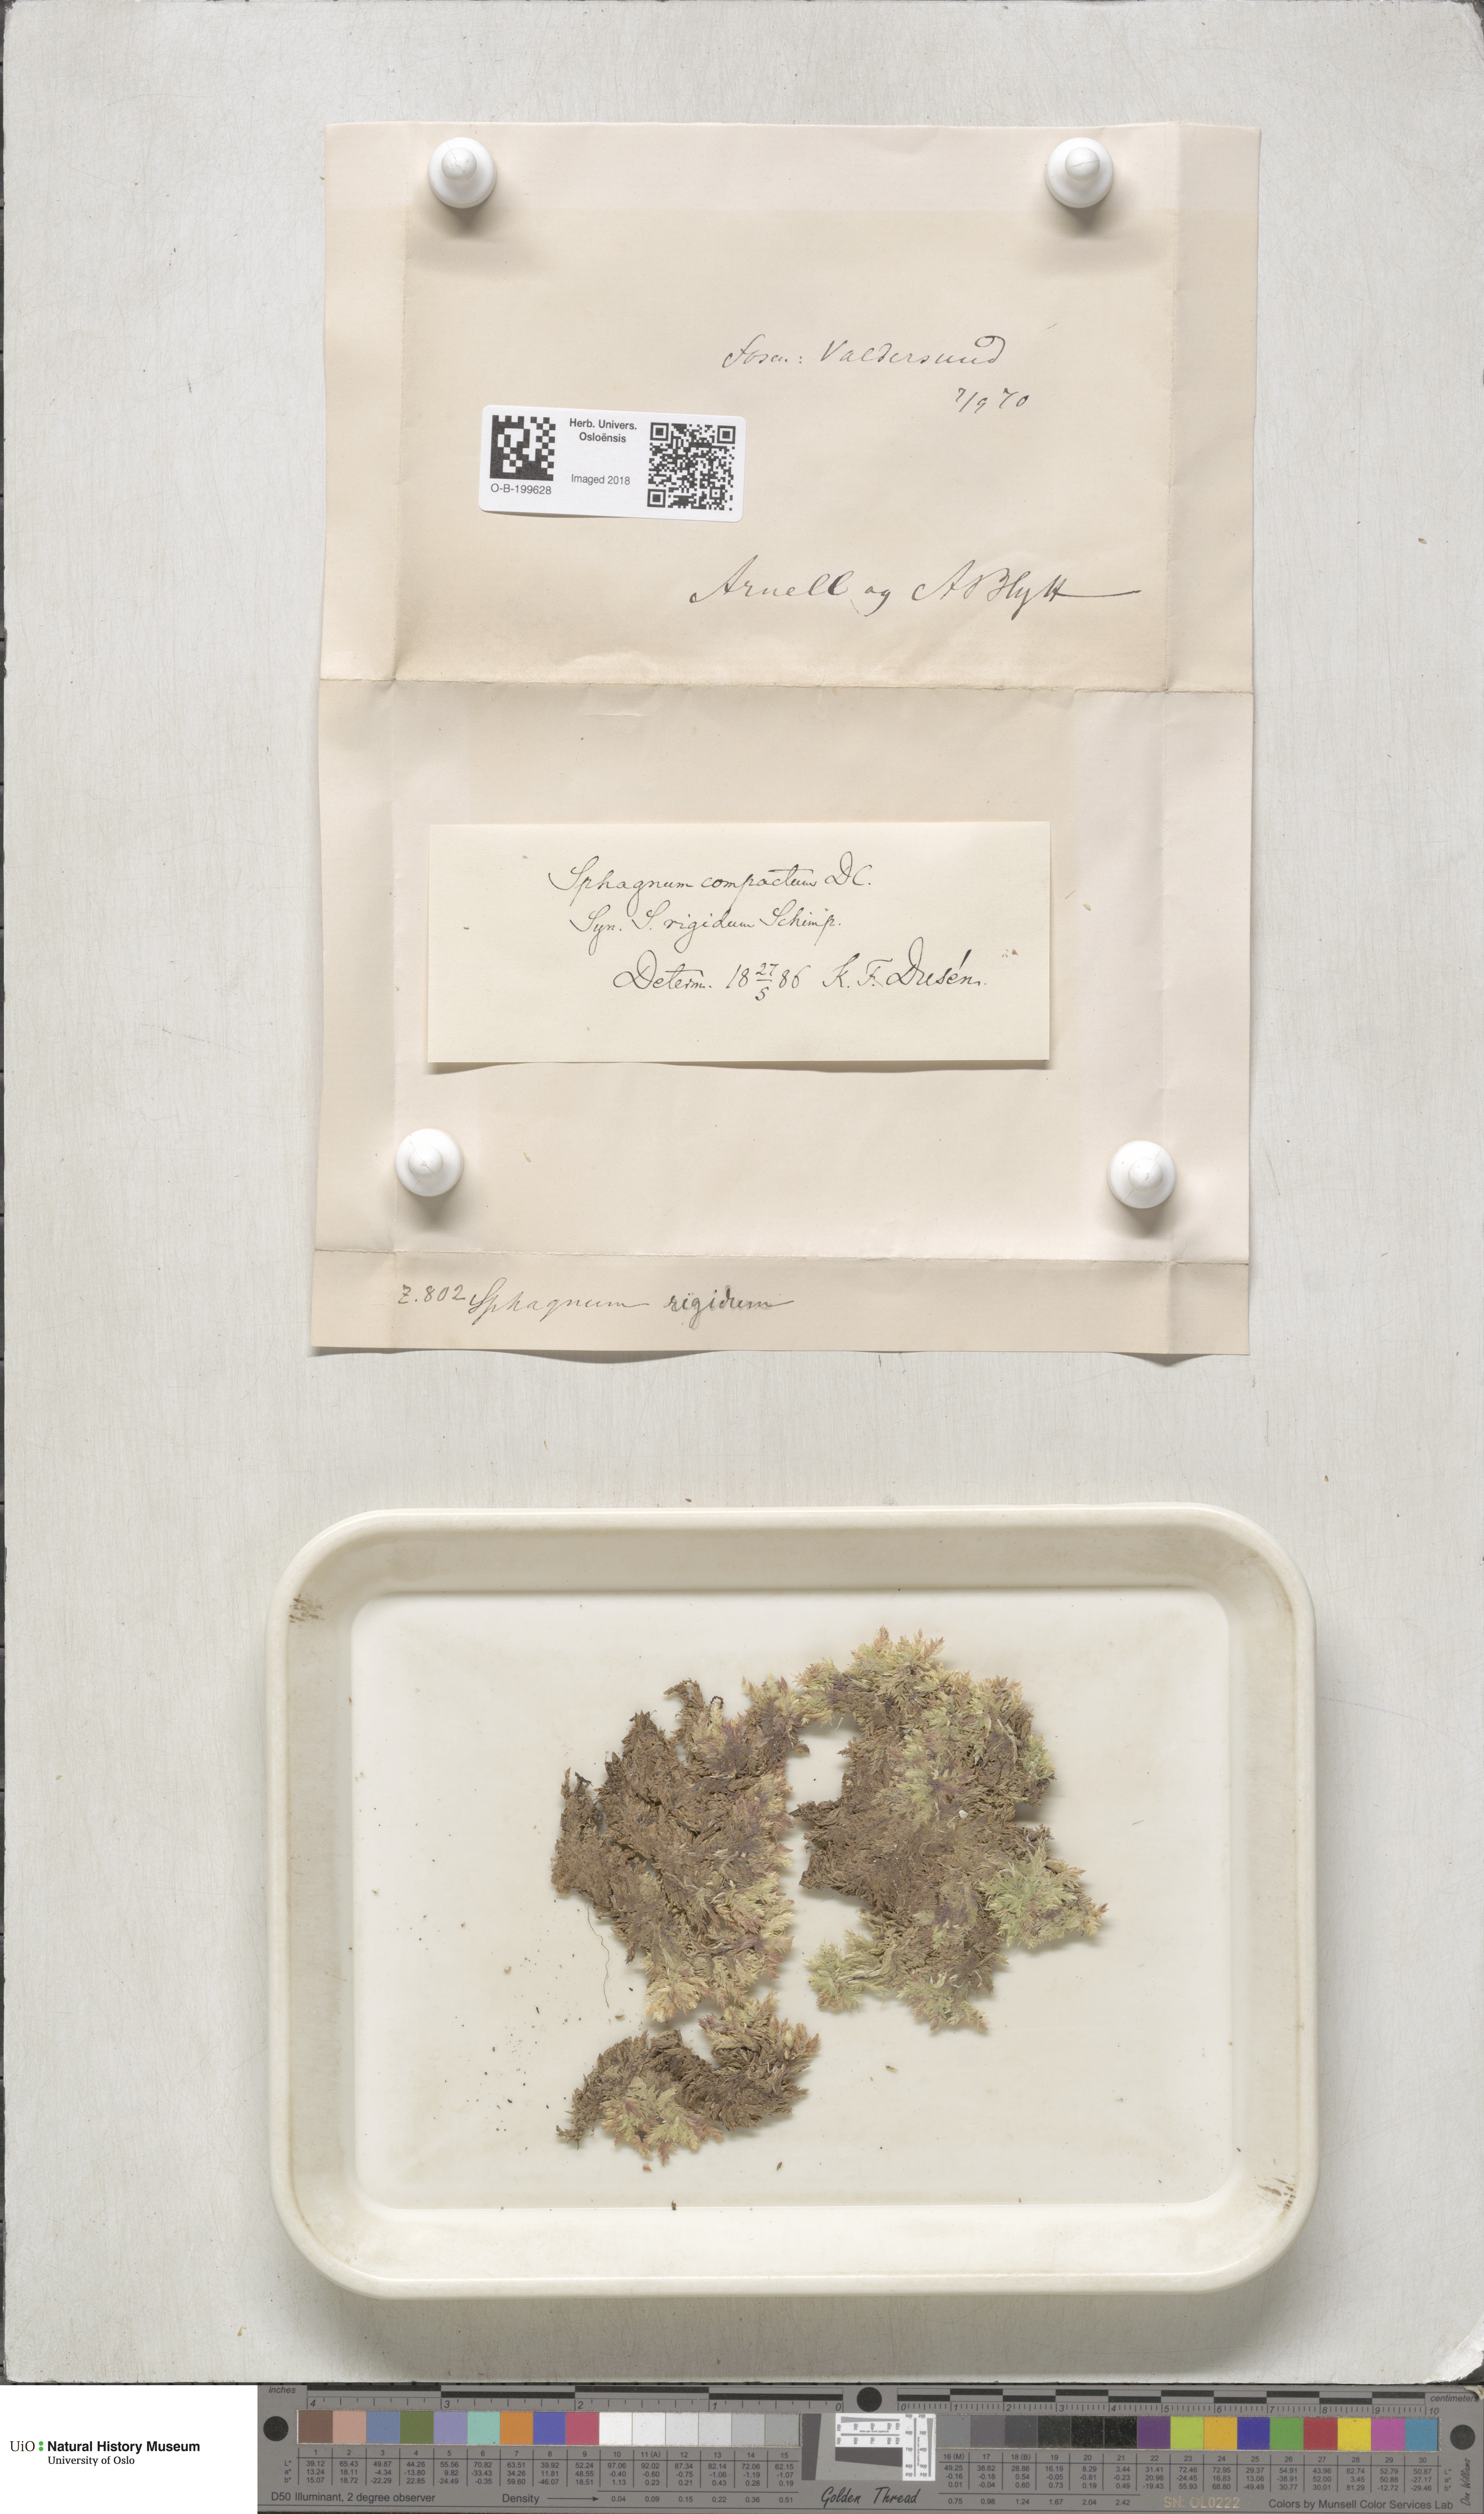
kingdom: Plantae
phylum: Bryophyta
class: Sphagnopsida
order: Sphagnales
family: Sphagnaceae
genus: Sphagnum
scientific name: Sphagnum compactum
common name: Compact peat moss
